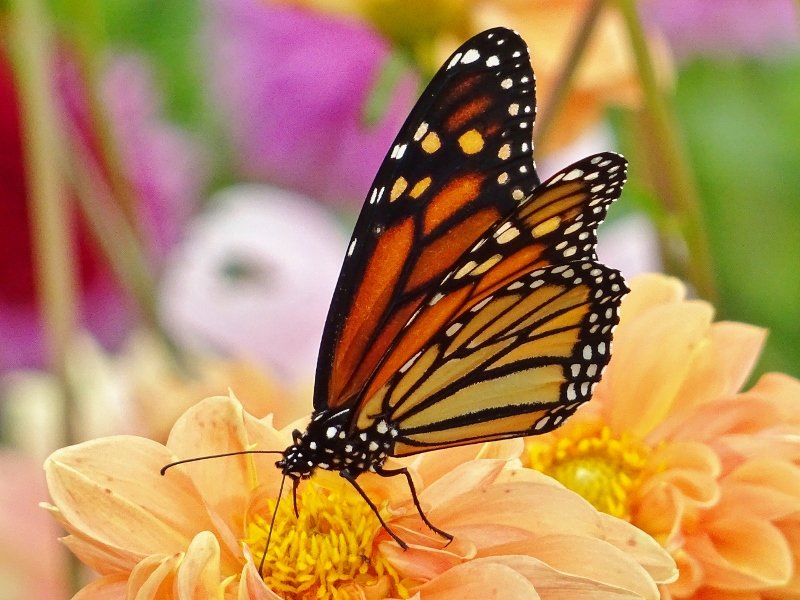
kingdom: Animalia
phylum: Arthropoda
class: Insecta
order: Lepidoptera
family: Nymphalidae
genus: Danaus
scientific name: Danaus plexippus
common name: Monarch
